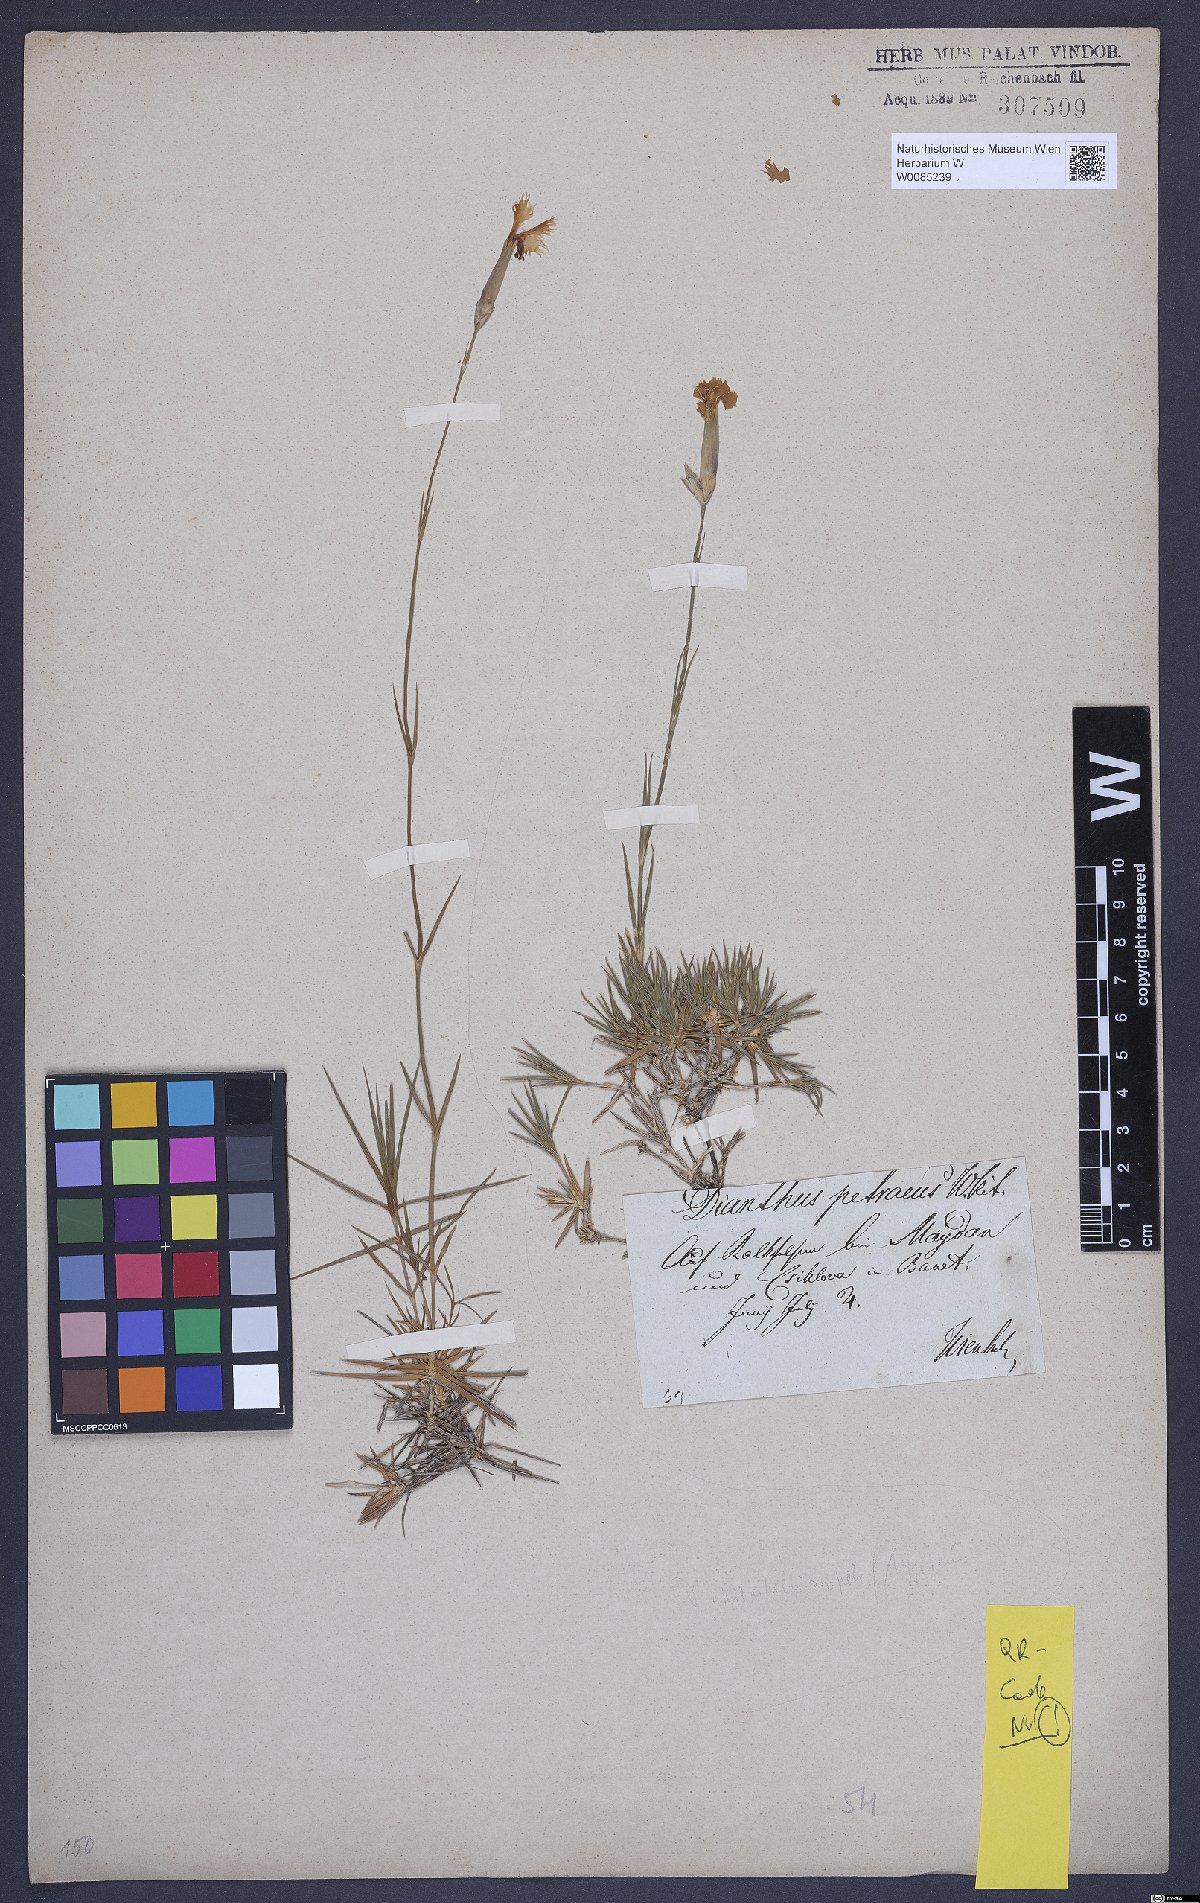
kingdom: Plantae
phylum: Tracheophyta
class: Magnoliopsida
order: Caryophyllales
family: Caryophyllaceae
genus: Dianthus
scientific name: Dianthus petraeus
